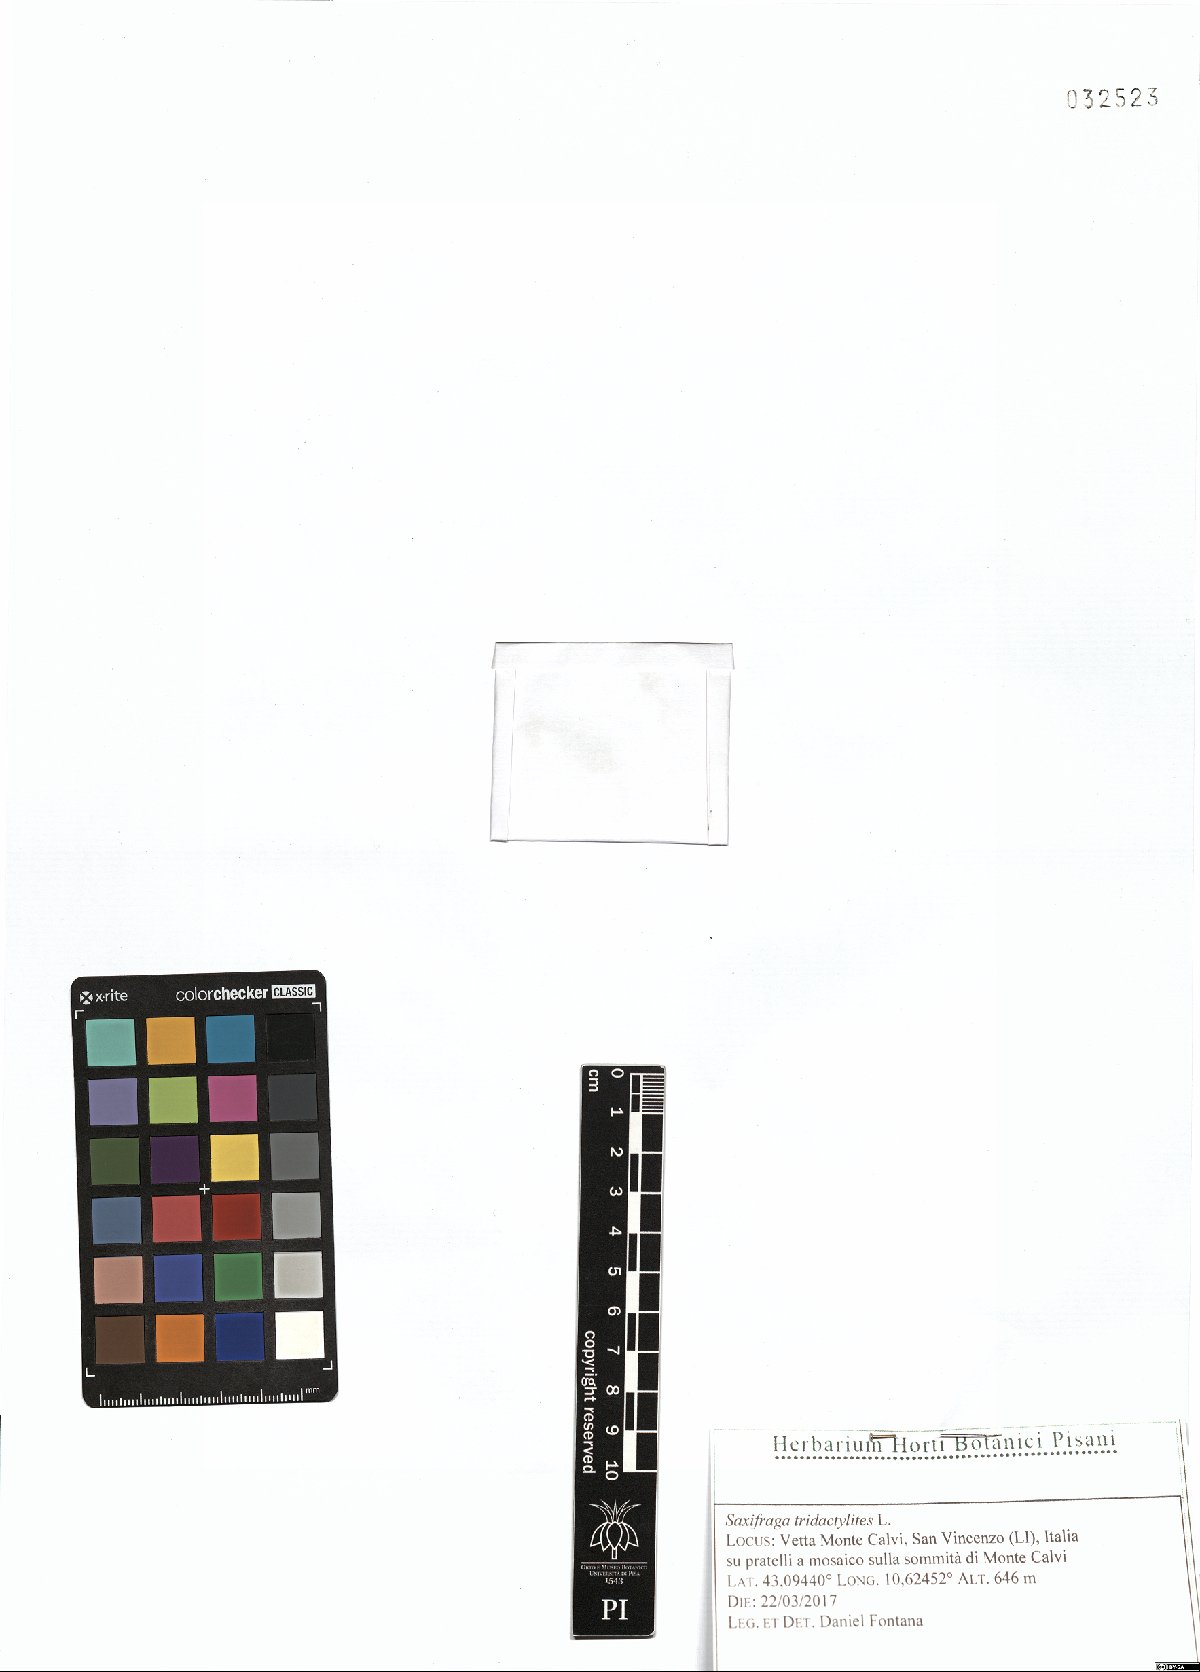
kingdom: Plantae
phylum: Tracheophyta
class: Magnoliopsida
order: Saxifragales
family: Saxifragaceae
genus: Saxifraga
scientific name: Saxifraga tridactylites
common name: Rue-leaved saxifrage
